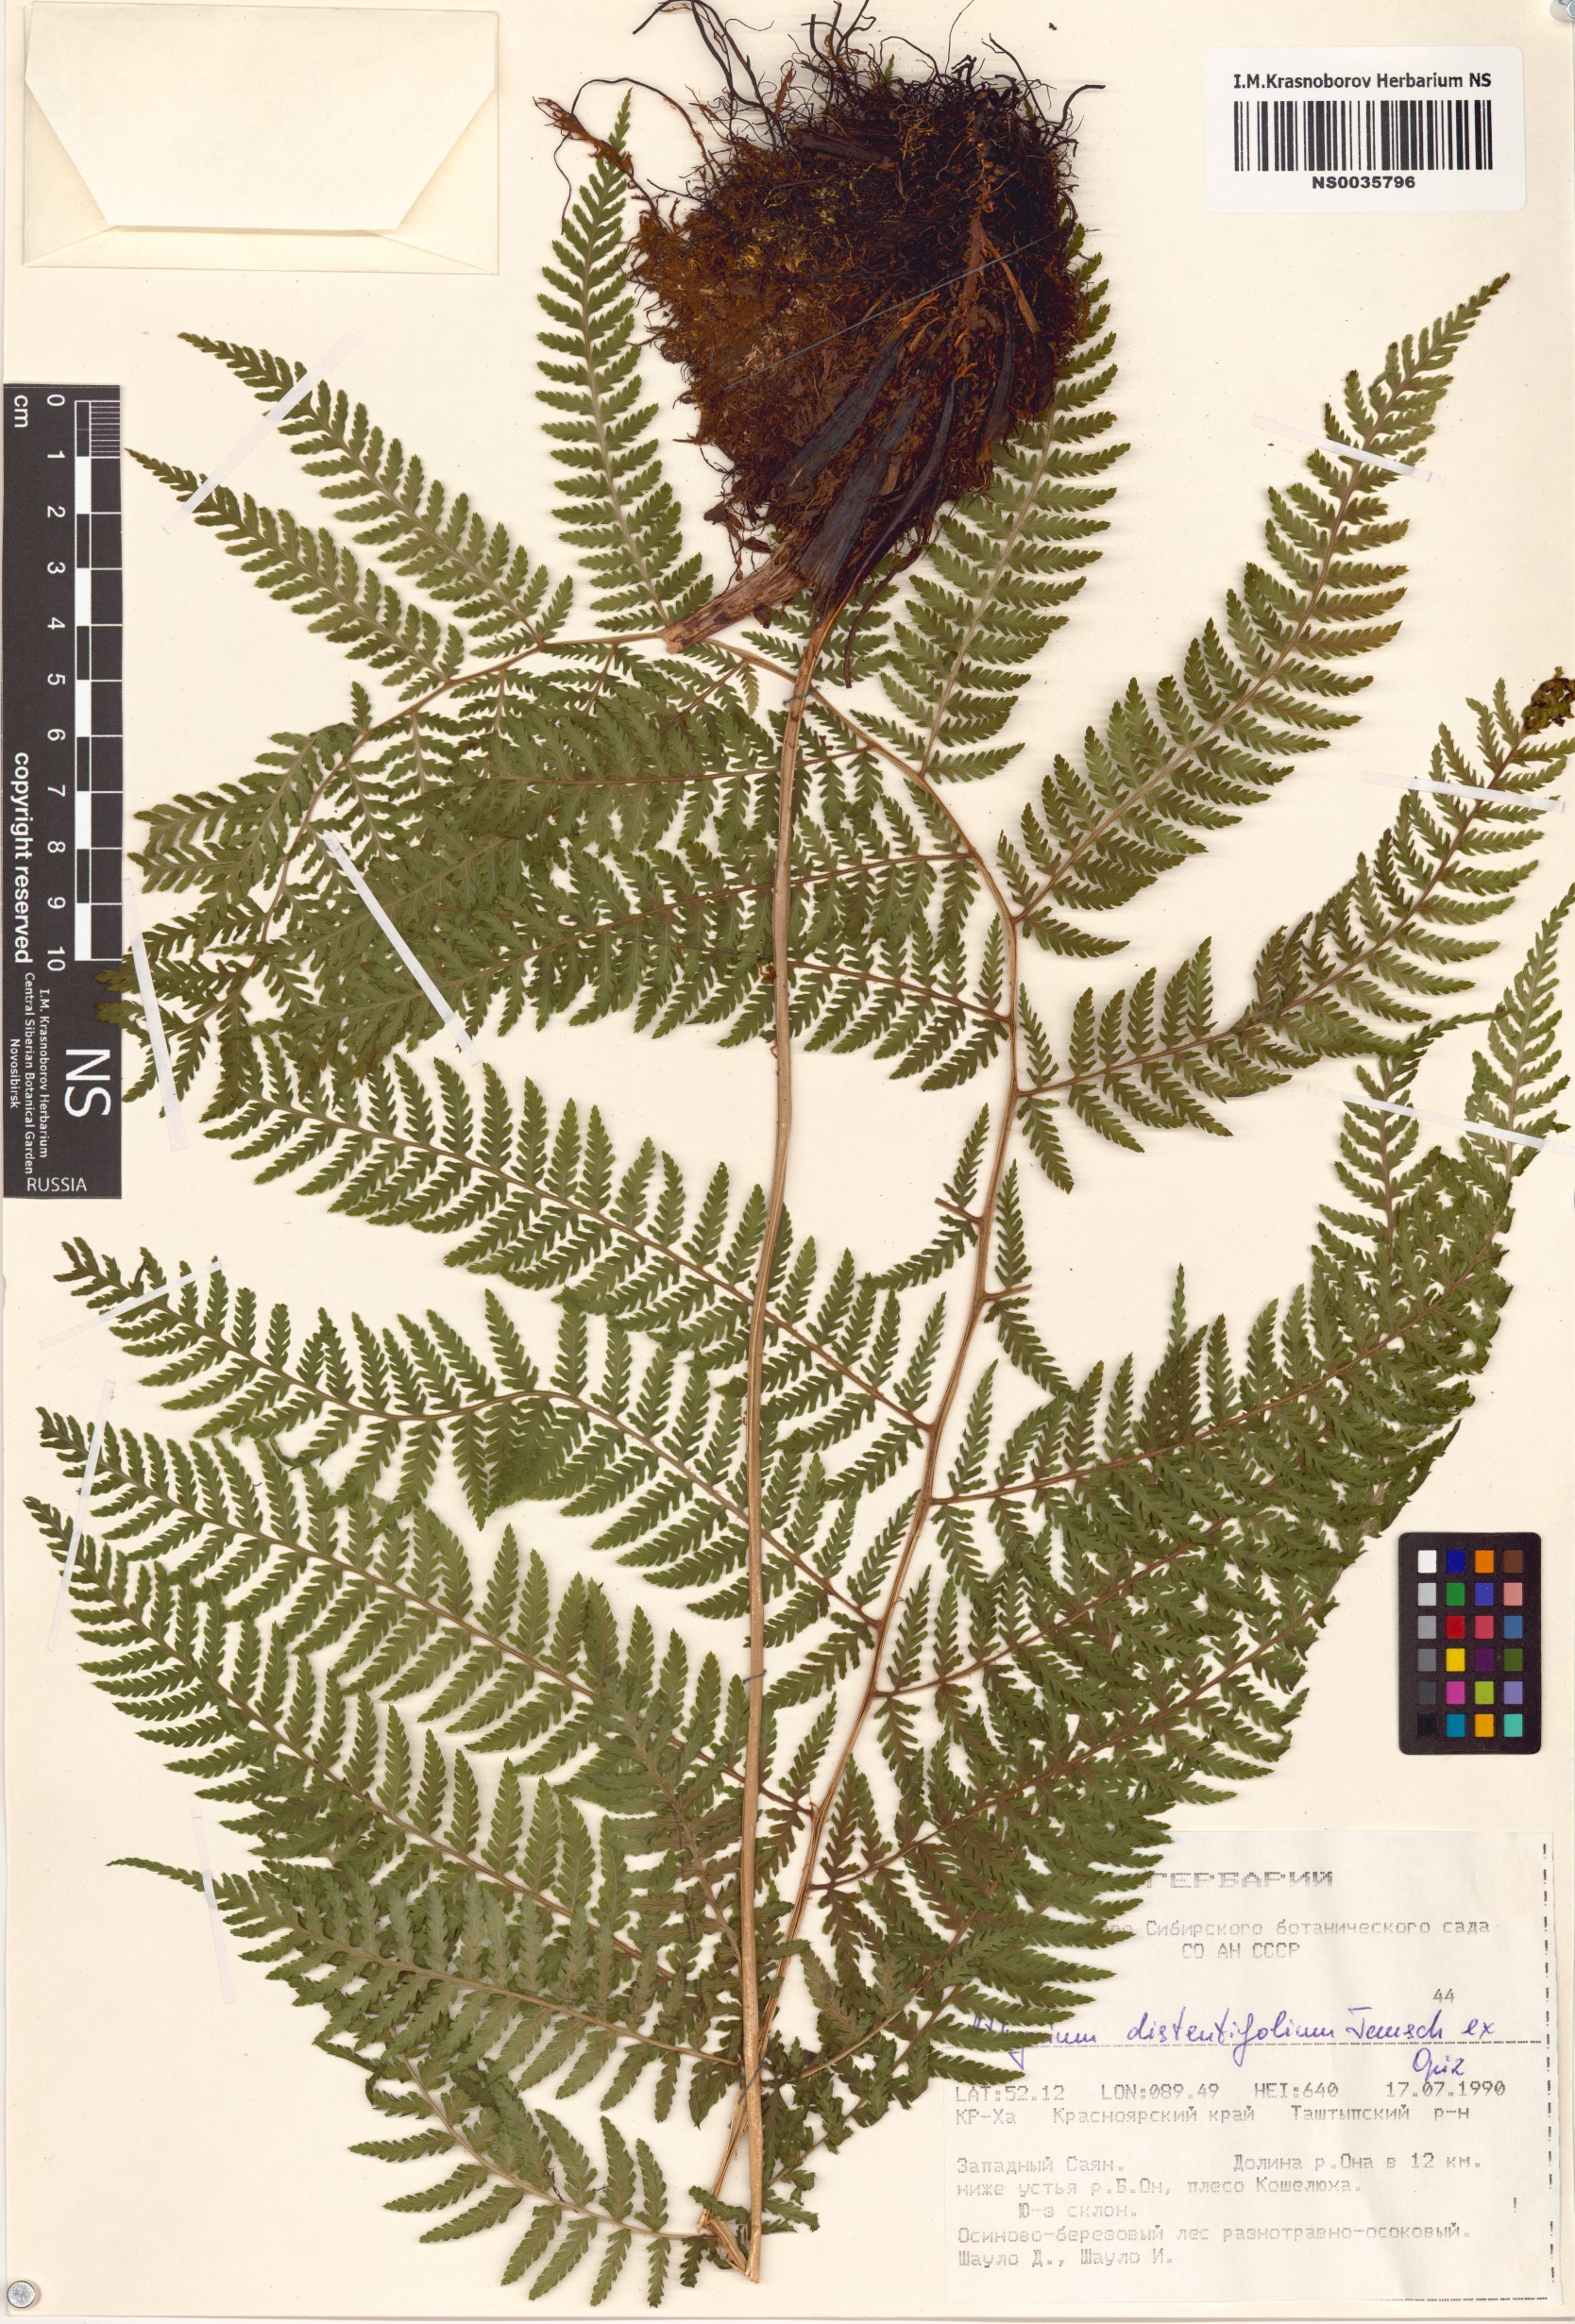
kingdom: Plantae
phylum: Tracheophyta
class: Polypodiopsida
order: Polypodiales
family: Athyriaceae
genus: Pseudathyrium
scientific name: Pseudathyrium alpestre
